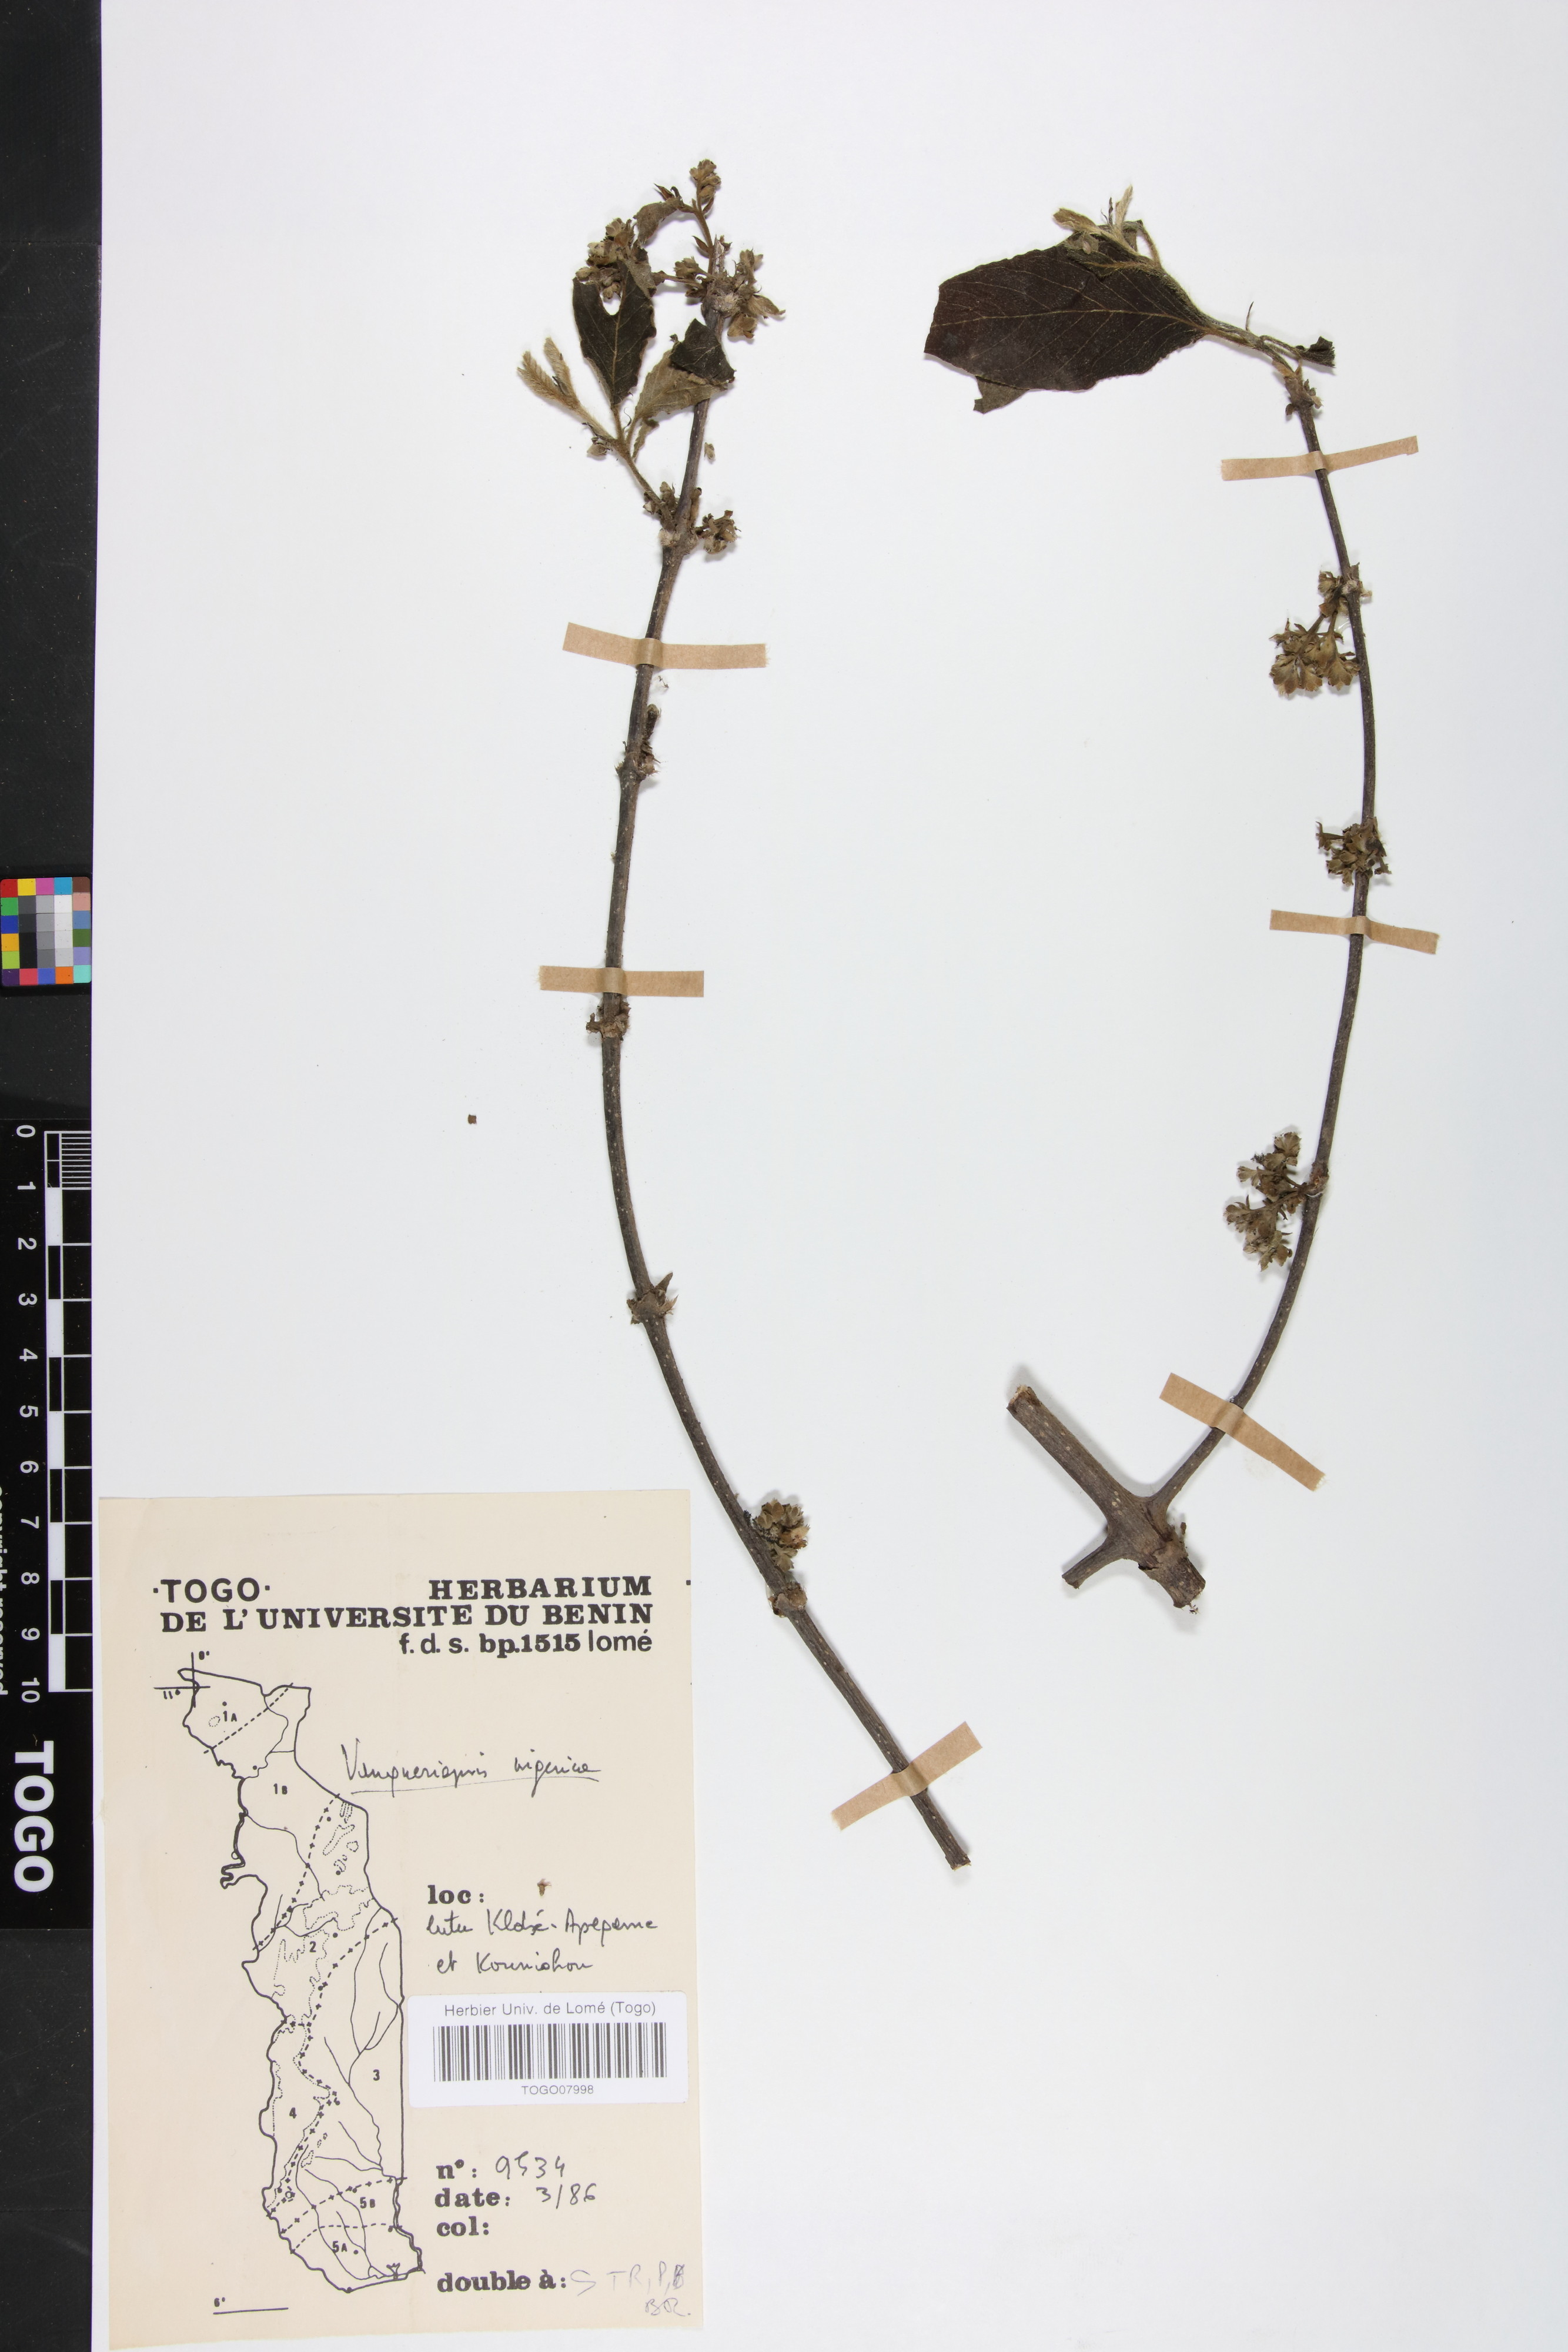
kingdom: Plantae
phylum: Tracheophyta
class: Magnoliopsida
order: Gentianales
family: Rubiaceae
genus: Vangueriella
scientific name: Vangueriella nigerica
